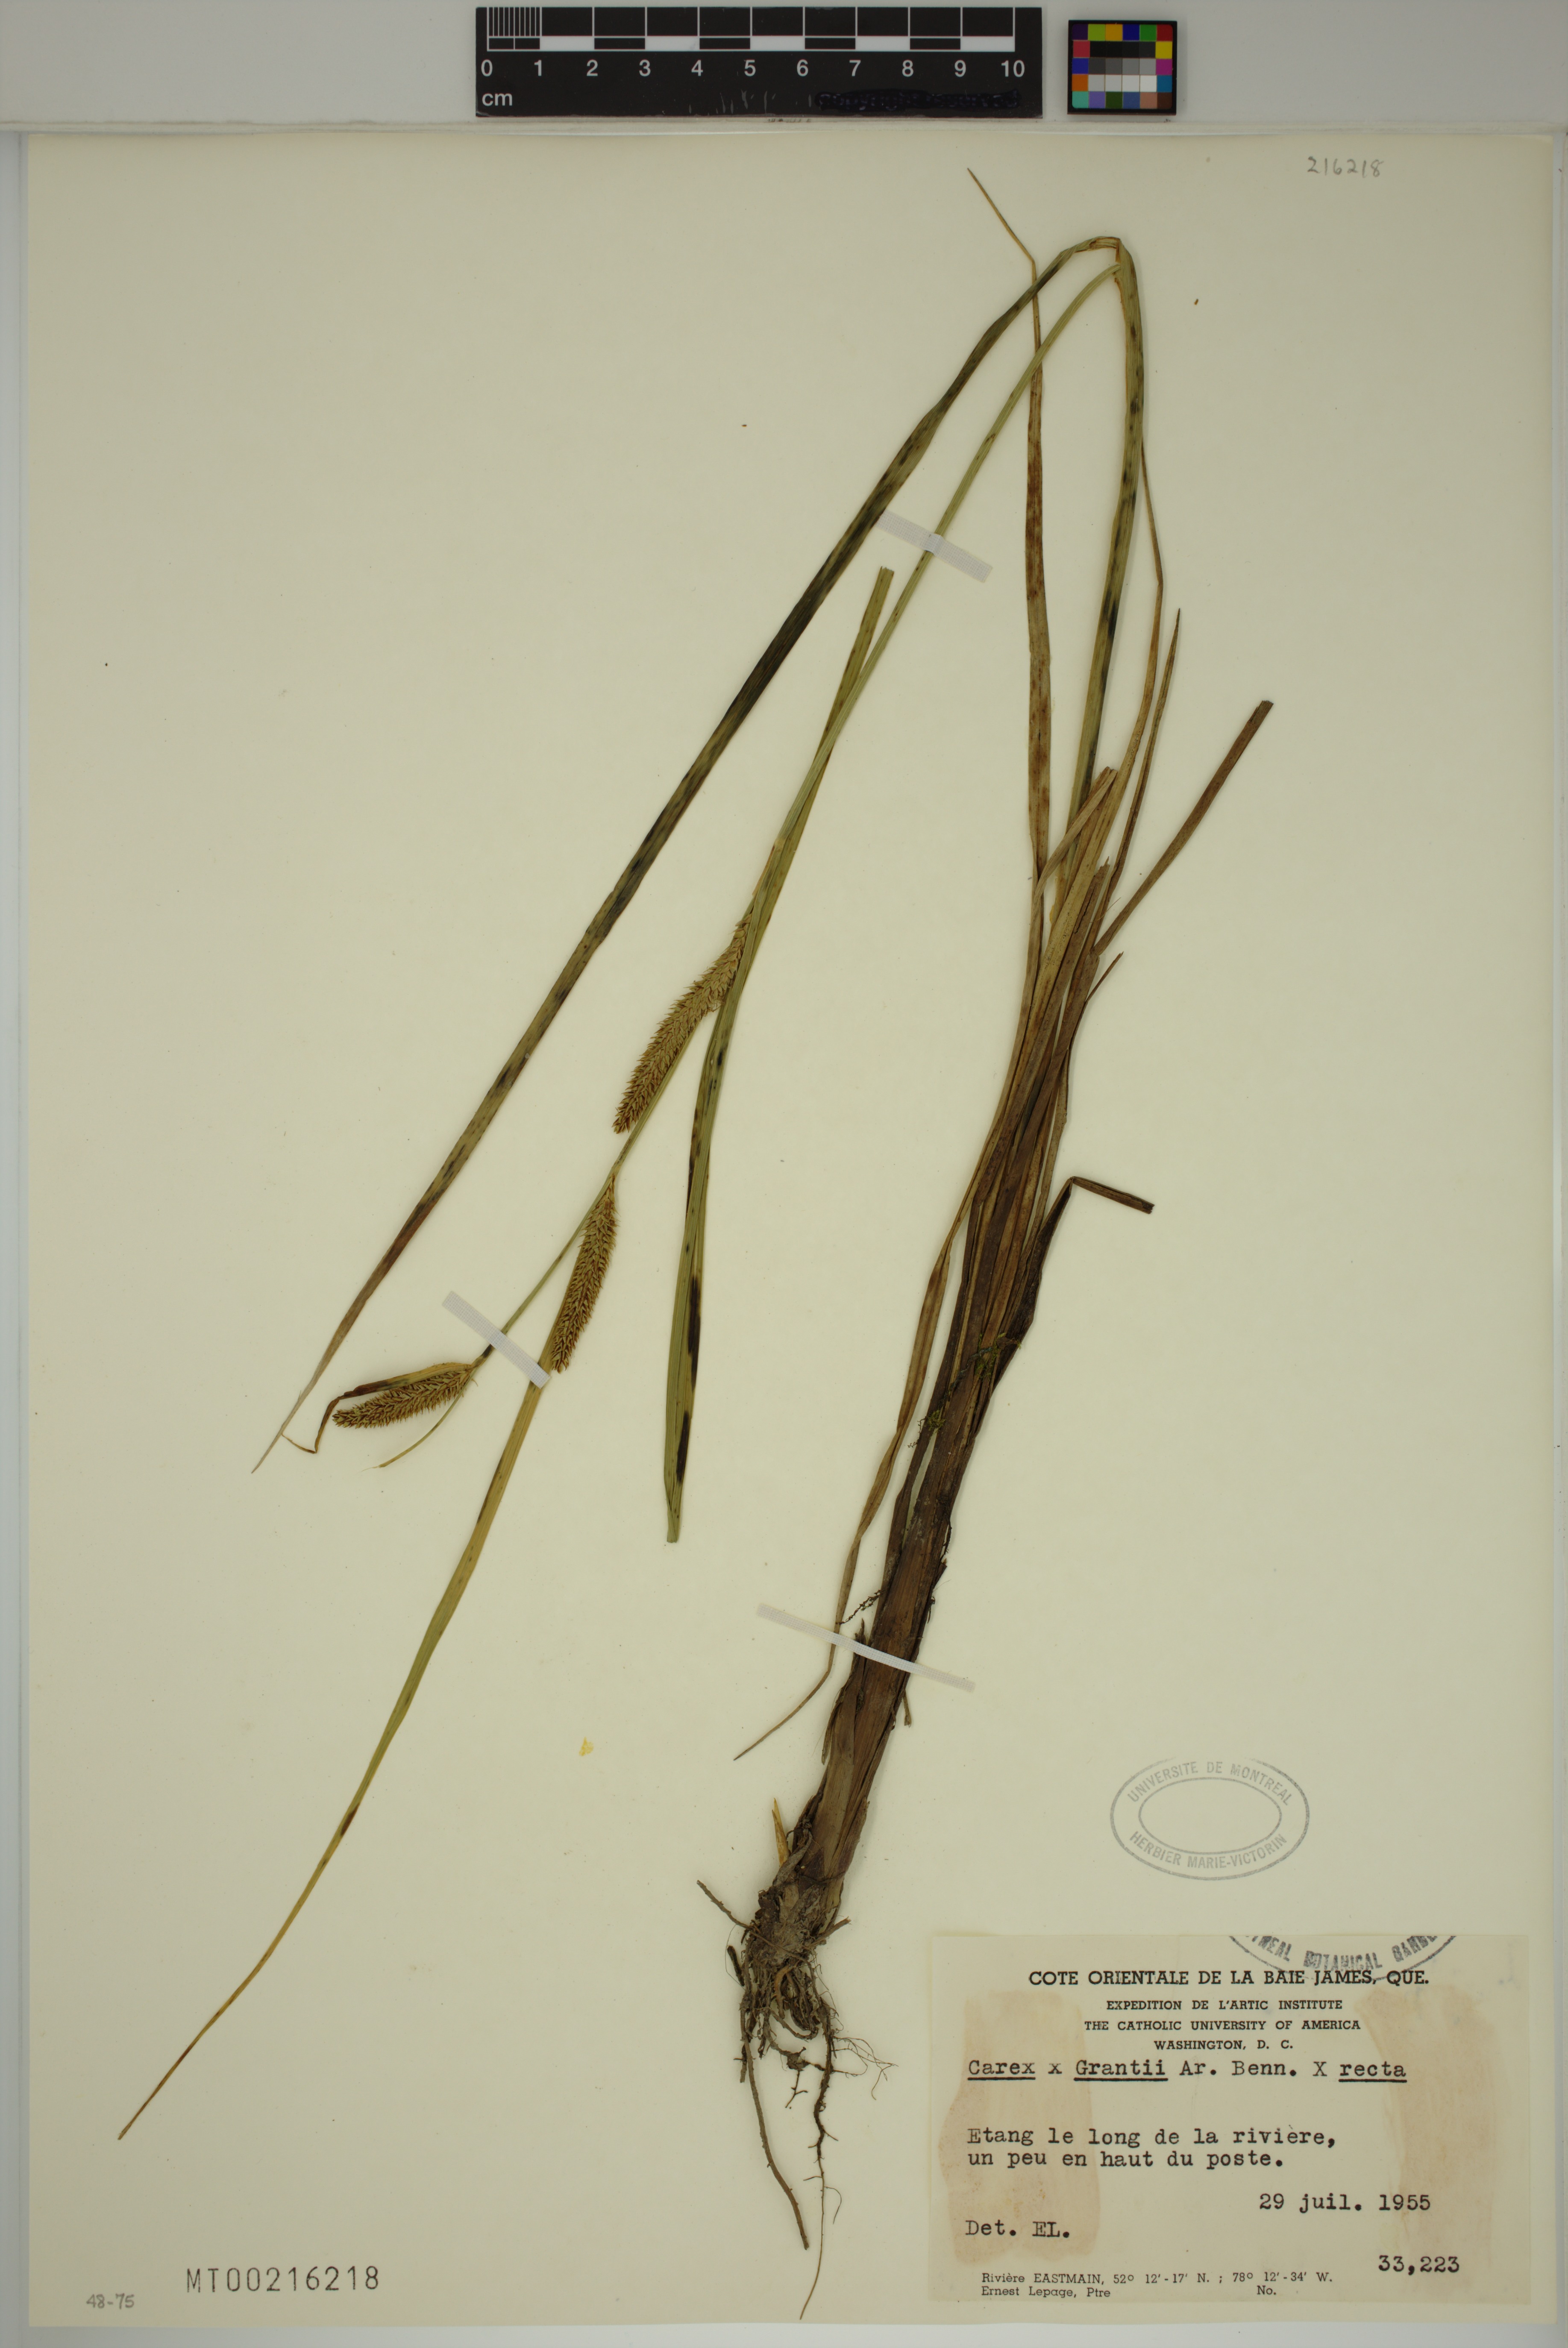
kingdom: Plantae
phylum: Tracheophyta
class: Liliopsida
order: Poales
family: Cyperaceae
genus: Carex
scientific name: Carex grantii
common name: Grant's sedge
